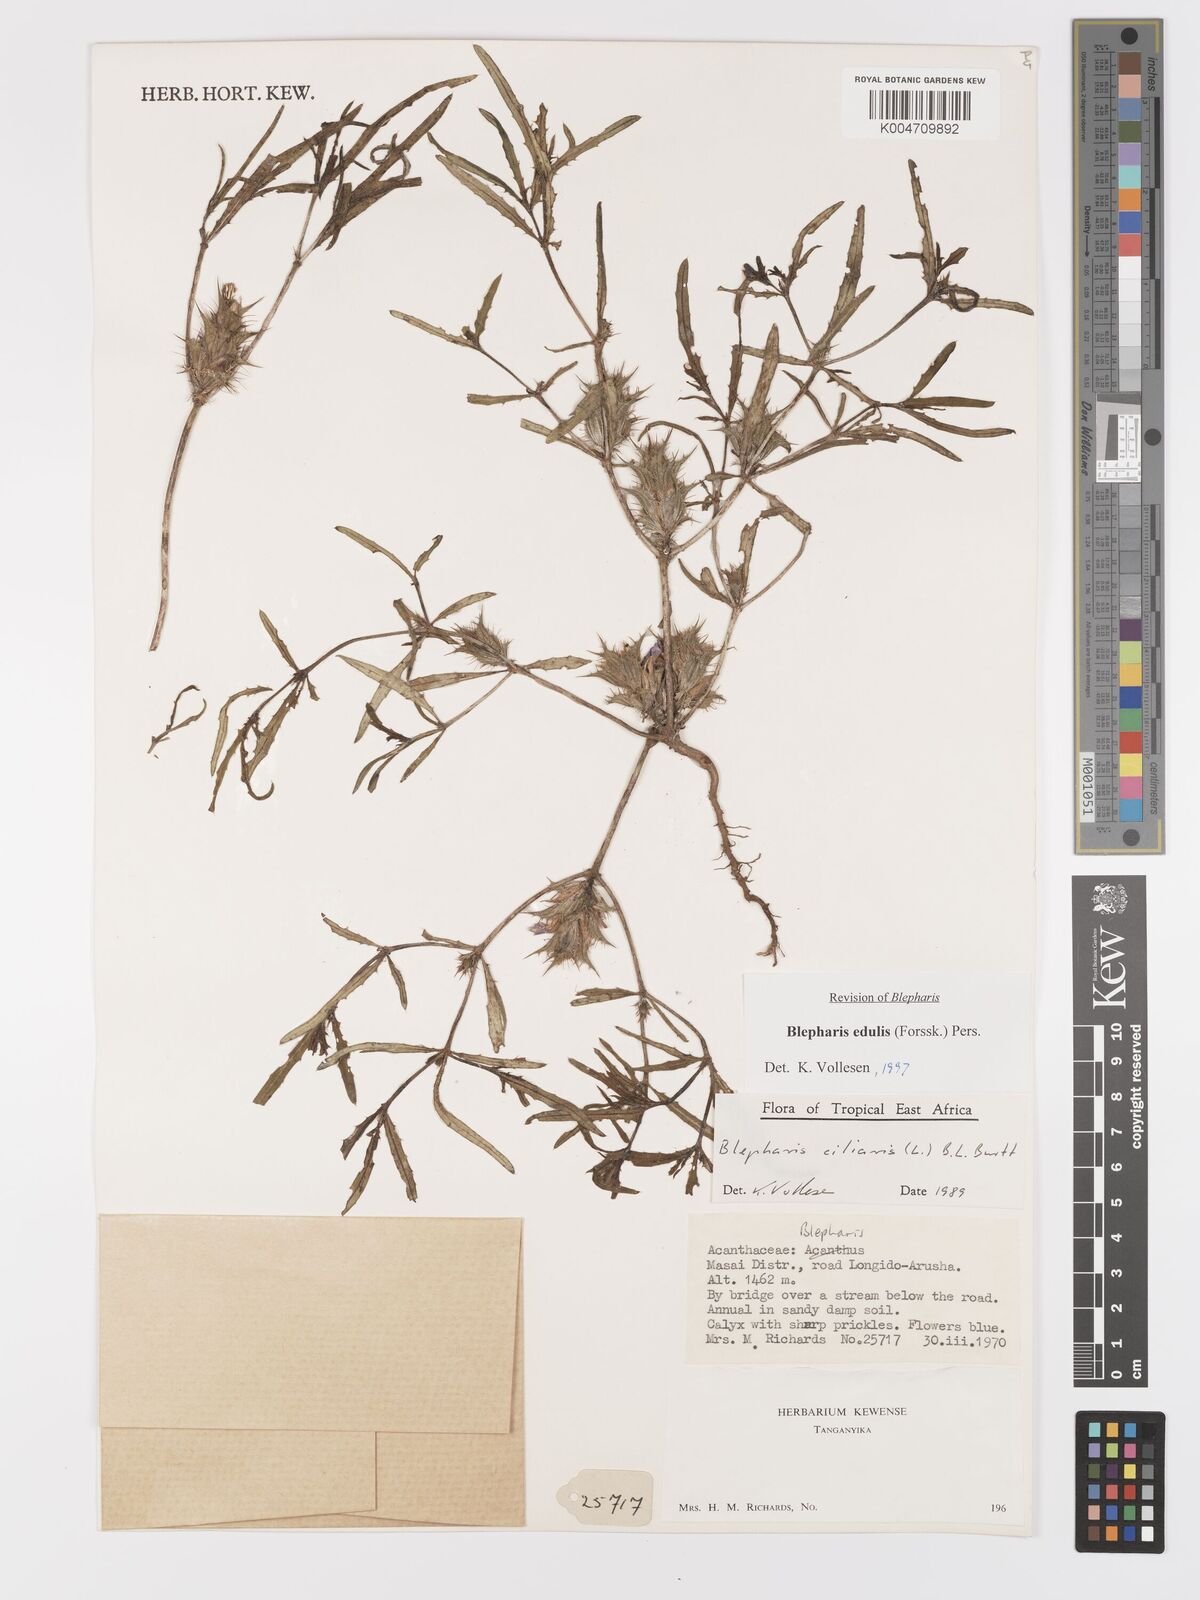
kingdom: Plantae
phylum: Tracheophyta
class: Magnoliopsida
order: Lamiales
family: Acanthaceae
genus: Blepharis
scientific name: Blepharis edulis
